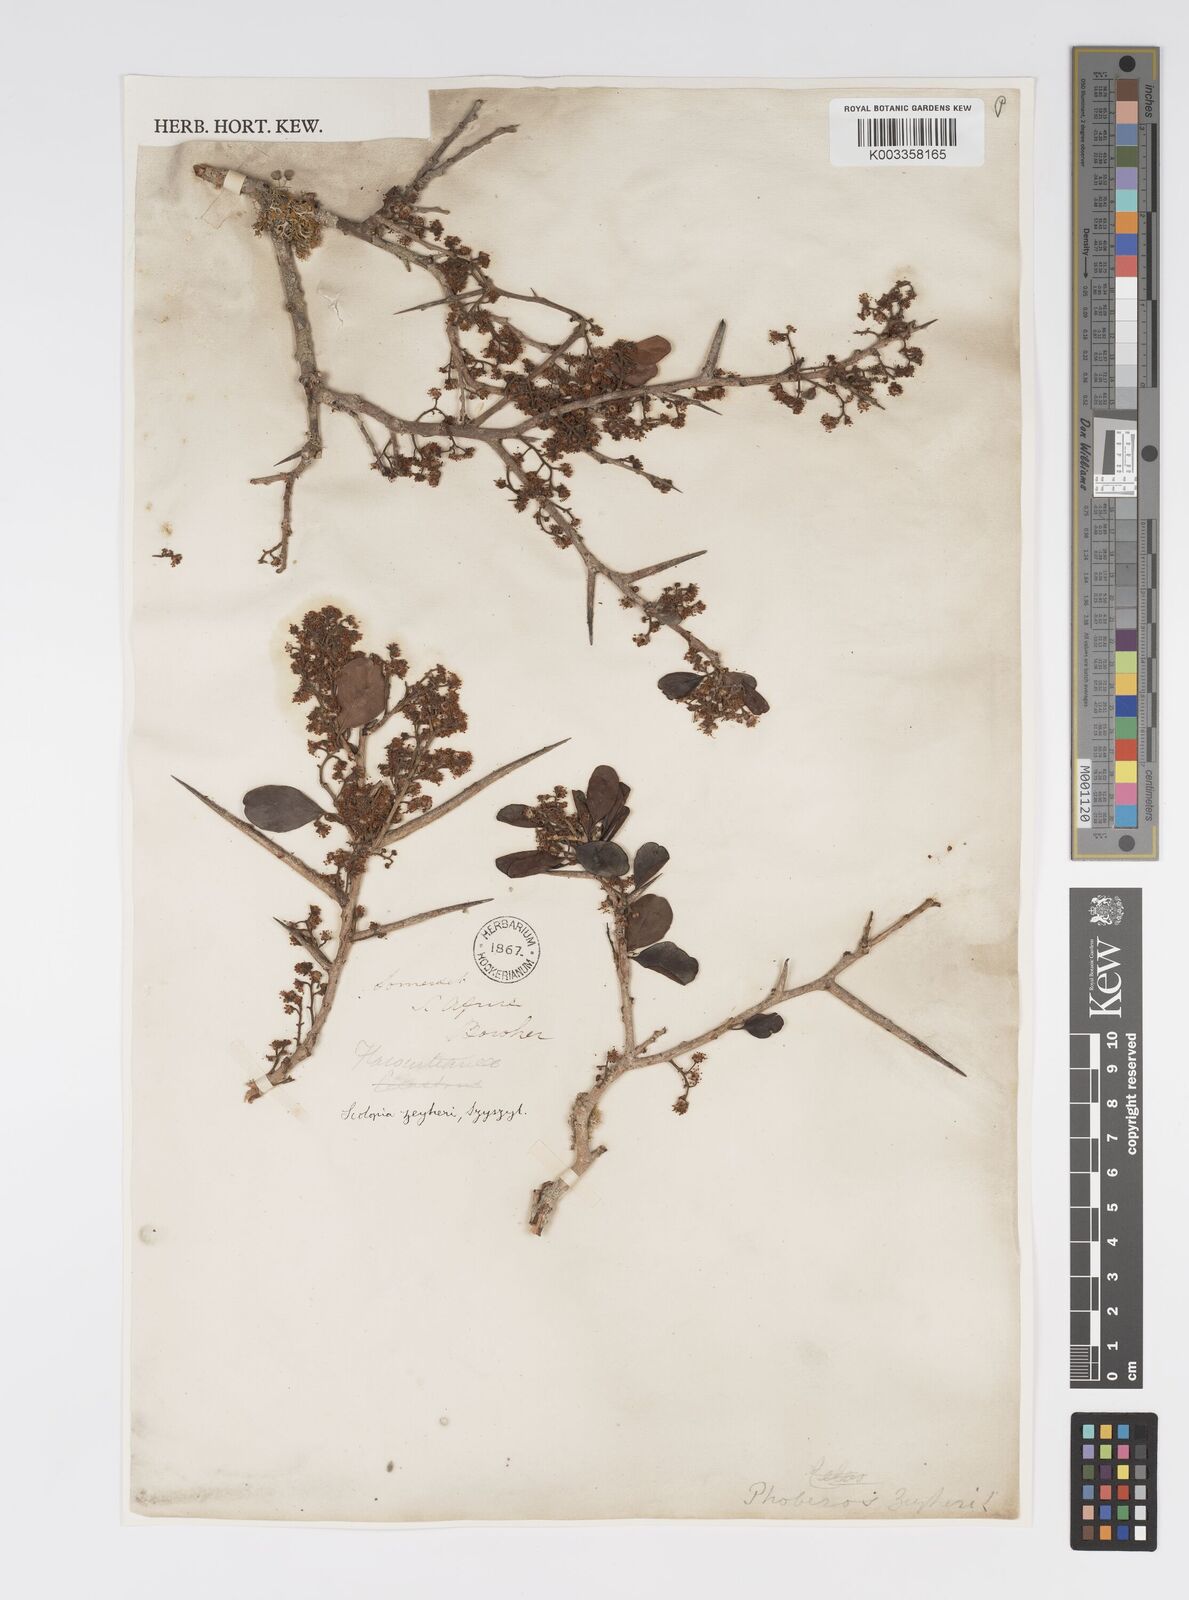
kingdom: Plantae
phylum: Tracheophyta
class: Magnoliopsida
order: Malpighiales
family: Salicaceae
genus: Scolopia
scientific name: Scolopia zeyheri
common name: Thorn pear
